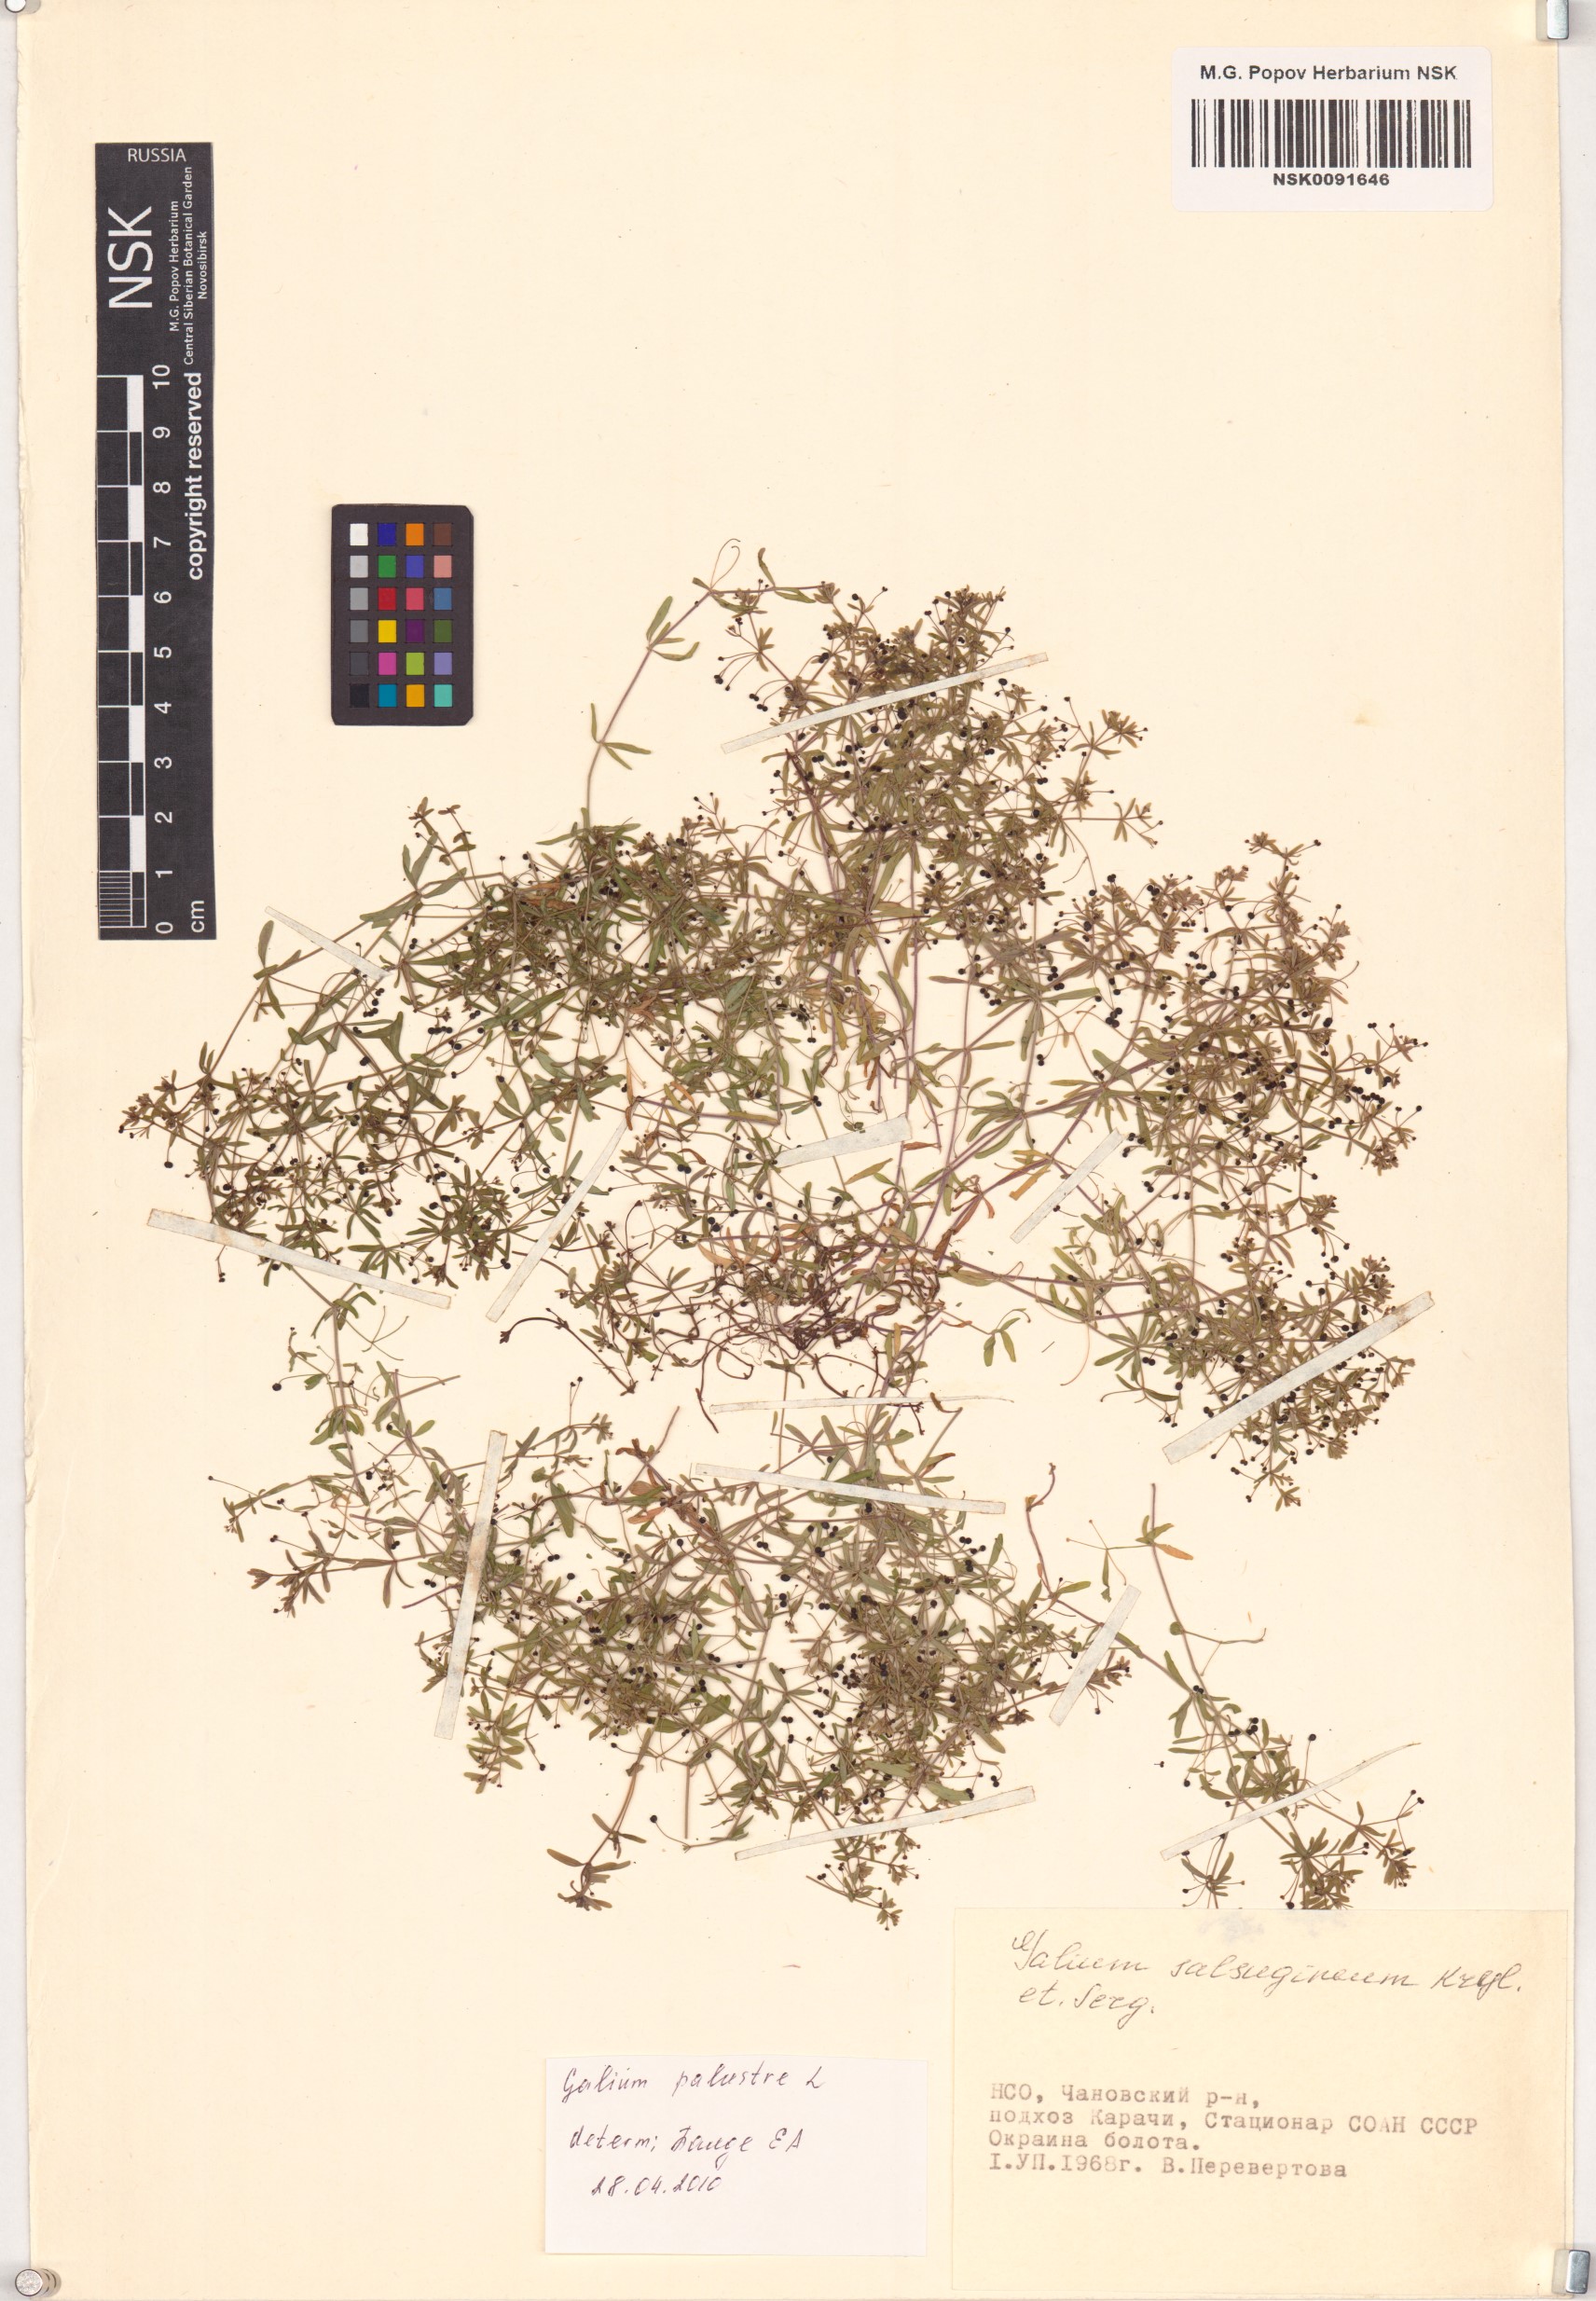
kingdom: Plantae
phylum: Tracheophyta
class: Magnoliopsida
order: Gentianales
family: Rubiaceae
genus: Galium
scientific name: Galium palustre
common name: Common marsh-bedstraw
